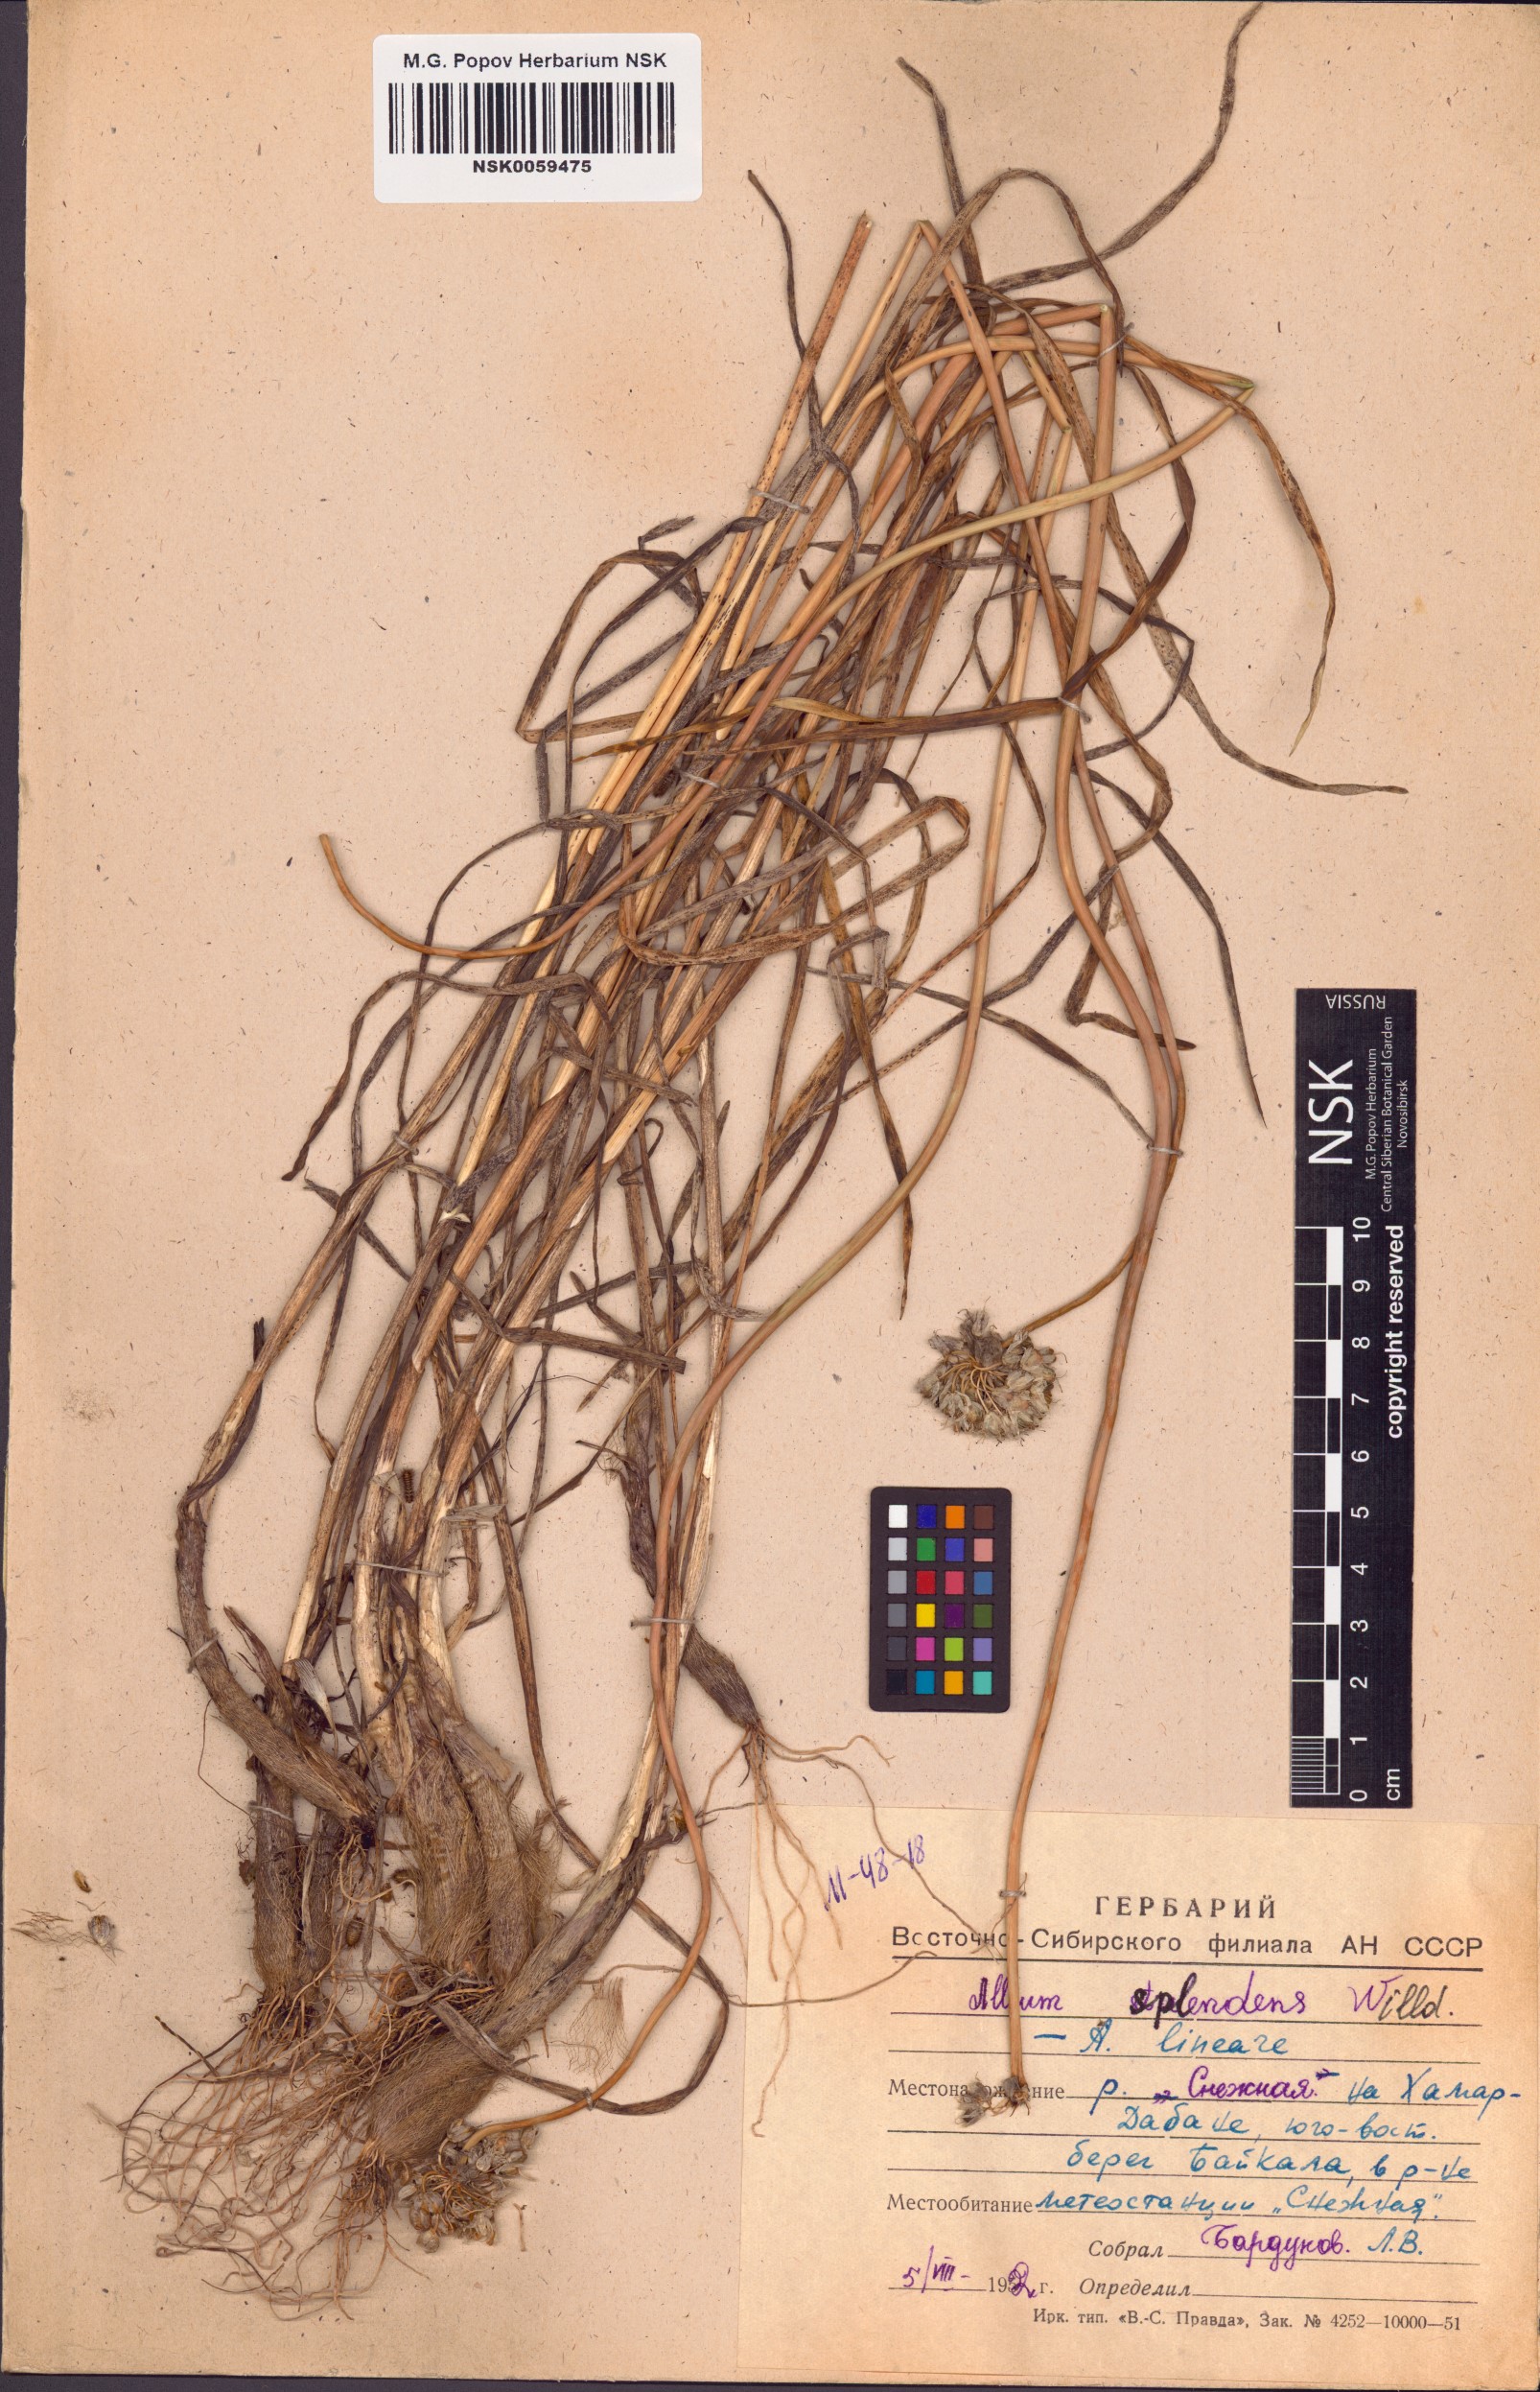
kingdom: Plantae
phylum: Tracheophyta
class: Liliopsida
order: Asparagales
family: Amaryllidaceae
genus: Allium
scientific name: Allium splendens
